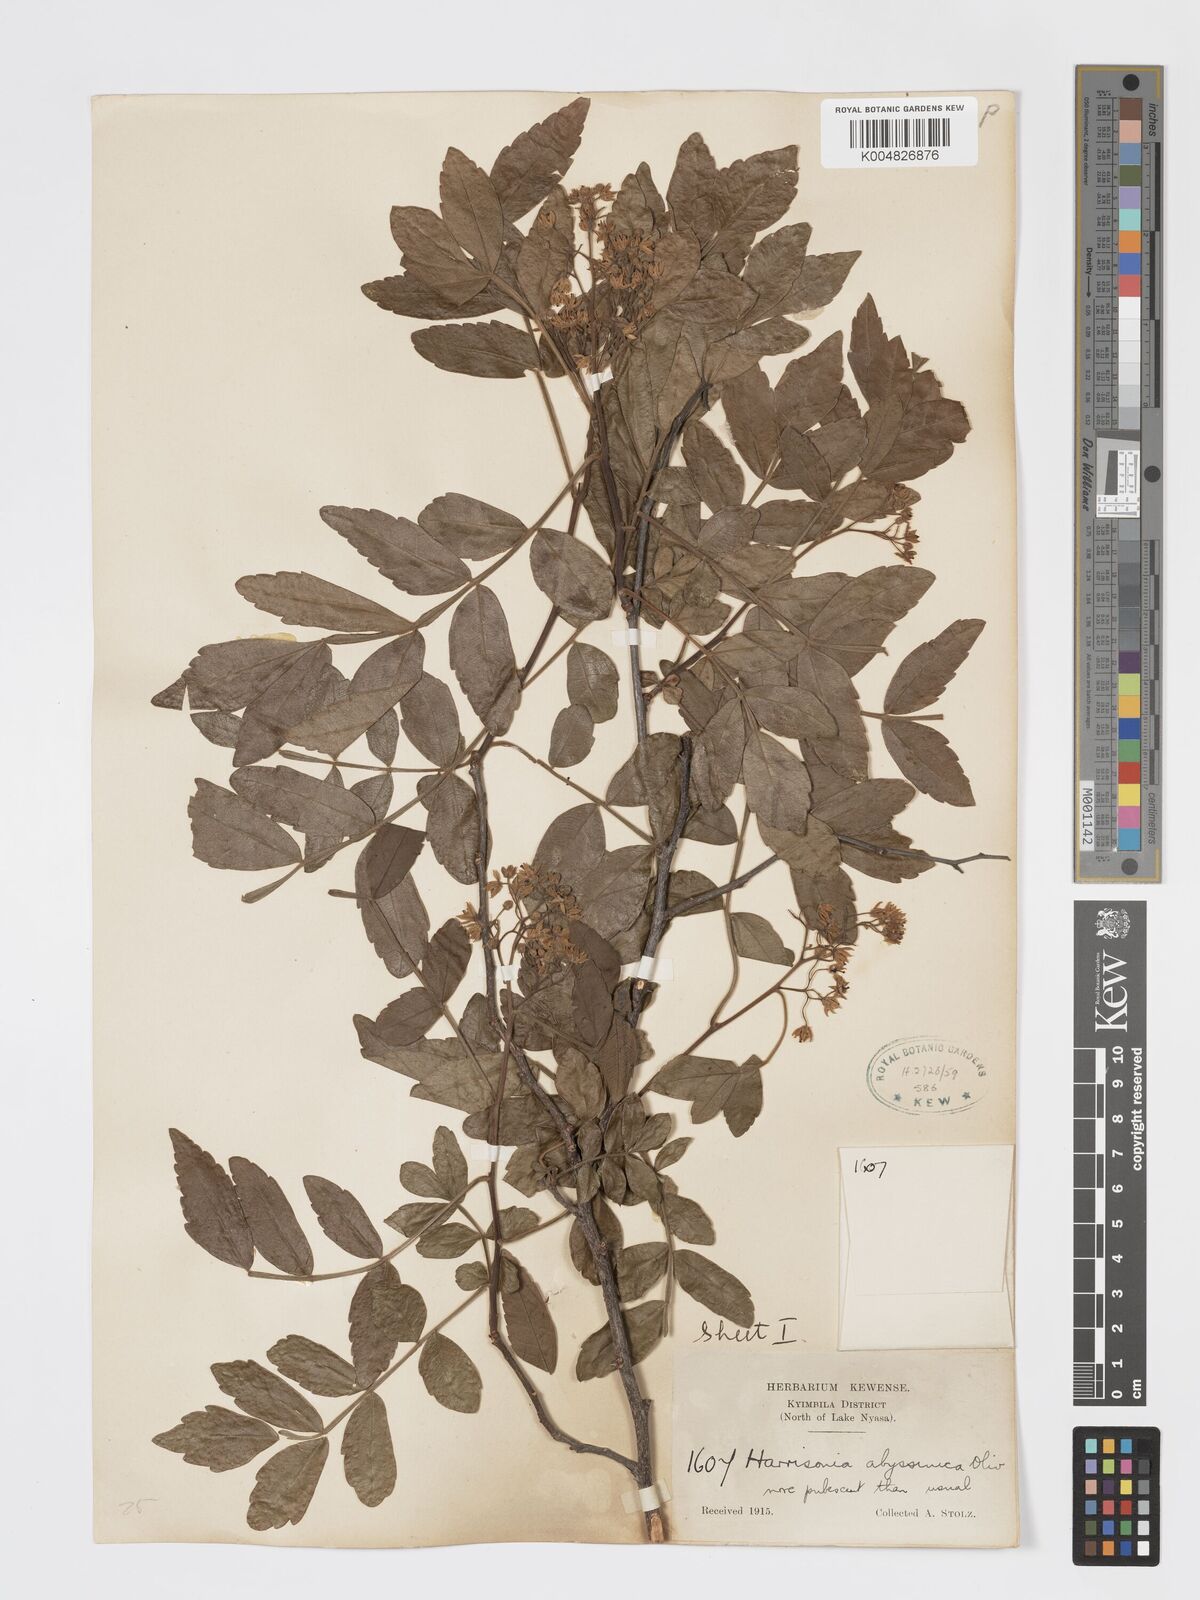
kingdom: Plantae
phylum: Tracheophyta
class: Magnoliopsida
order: Sapindales
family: Rutaceae
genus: Harrisonia
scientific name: Harrisonia abyssinica
